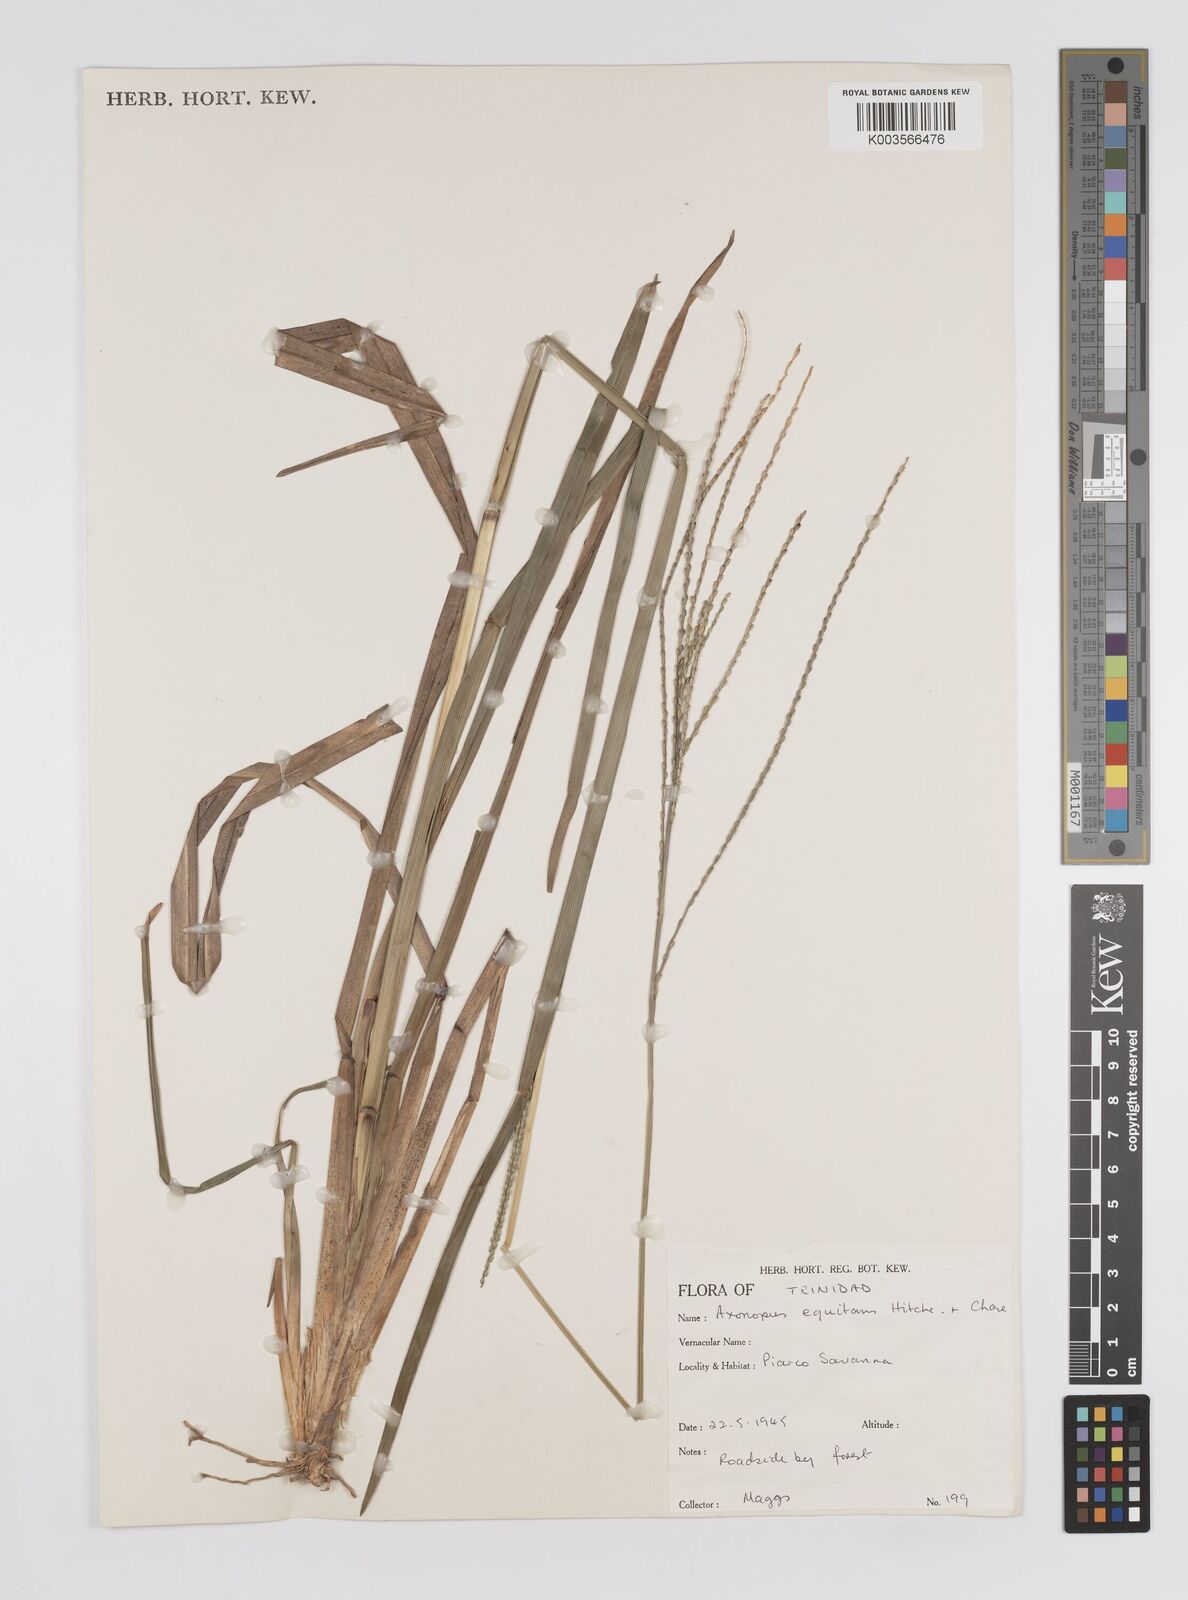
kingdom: Plantae
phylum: Tracheophyta
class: Liliopsida
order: Poales
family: Poaceae
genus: Axonopus
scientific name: Axonopus equitans
